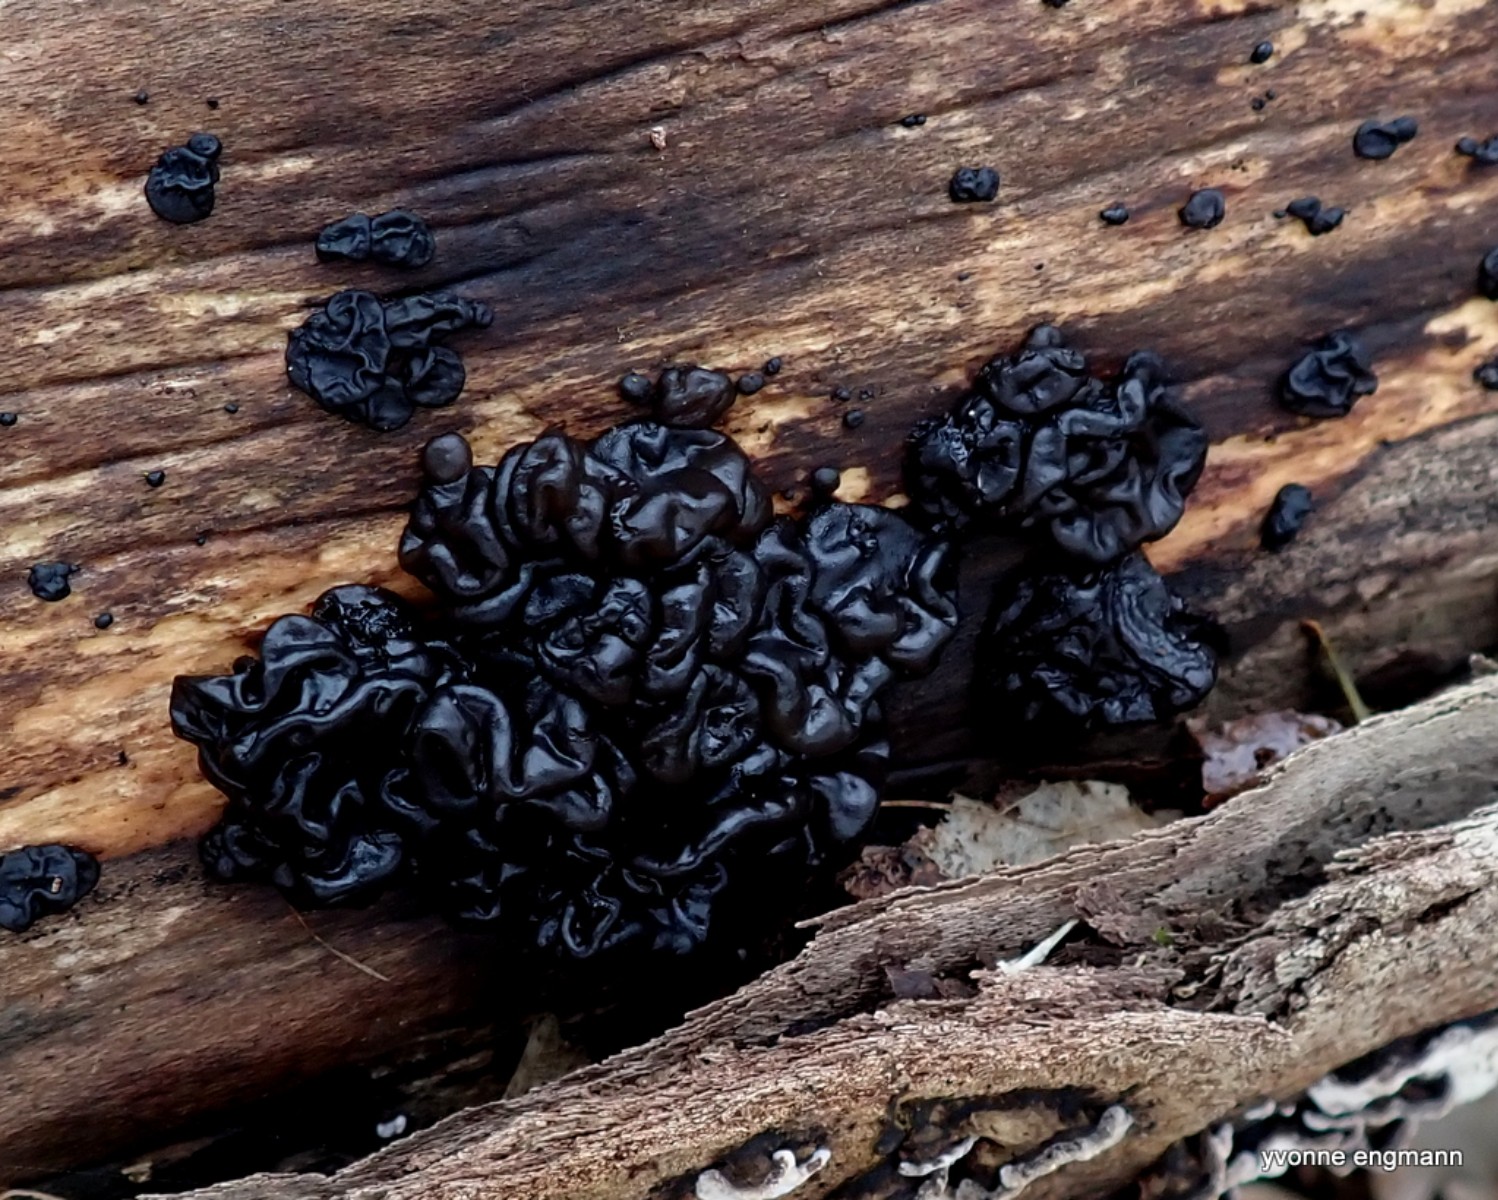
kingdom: Fungi
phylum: Basidiomycota
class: Agaricomycetes
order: Auriculariales
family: Auriculariaceae
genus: Exidia
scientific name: Exidia nigricans
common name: almindelig bævretop
